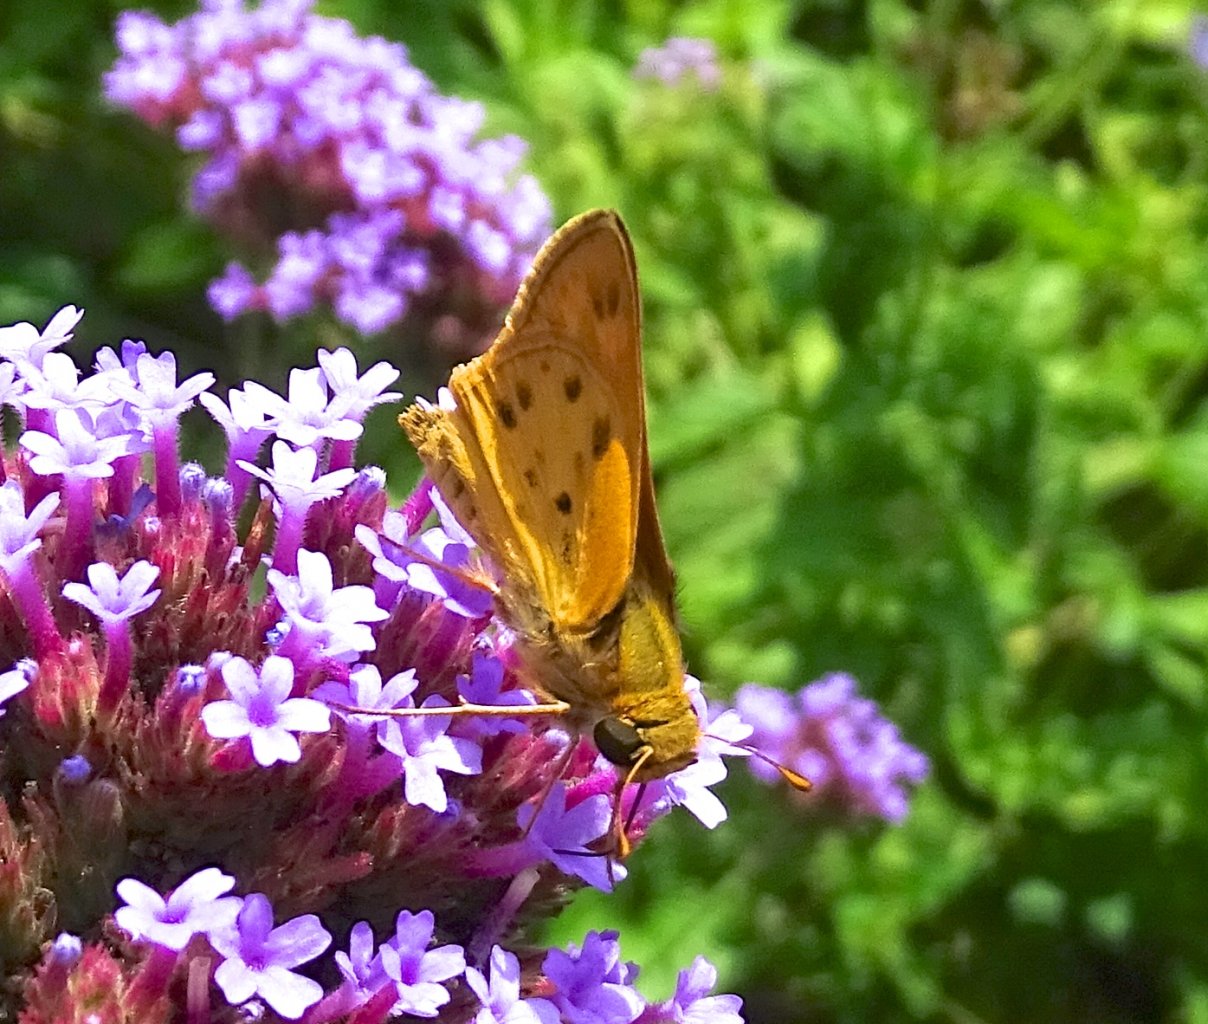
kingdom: Animalia
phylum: Arthropoda
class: Insecta
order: Lepidoptera
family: Hesperiidae
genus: Hylephila
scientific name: Hylephila phyleus
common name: Fiery Skipper
